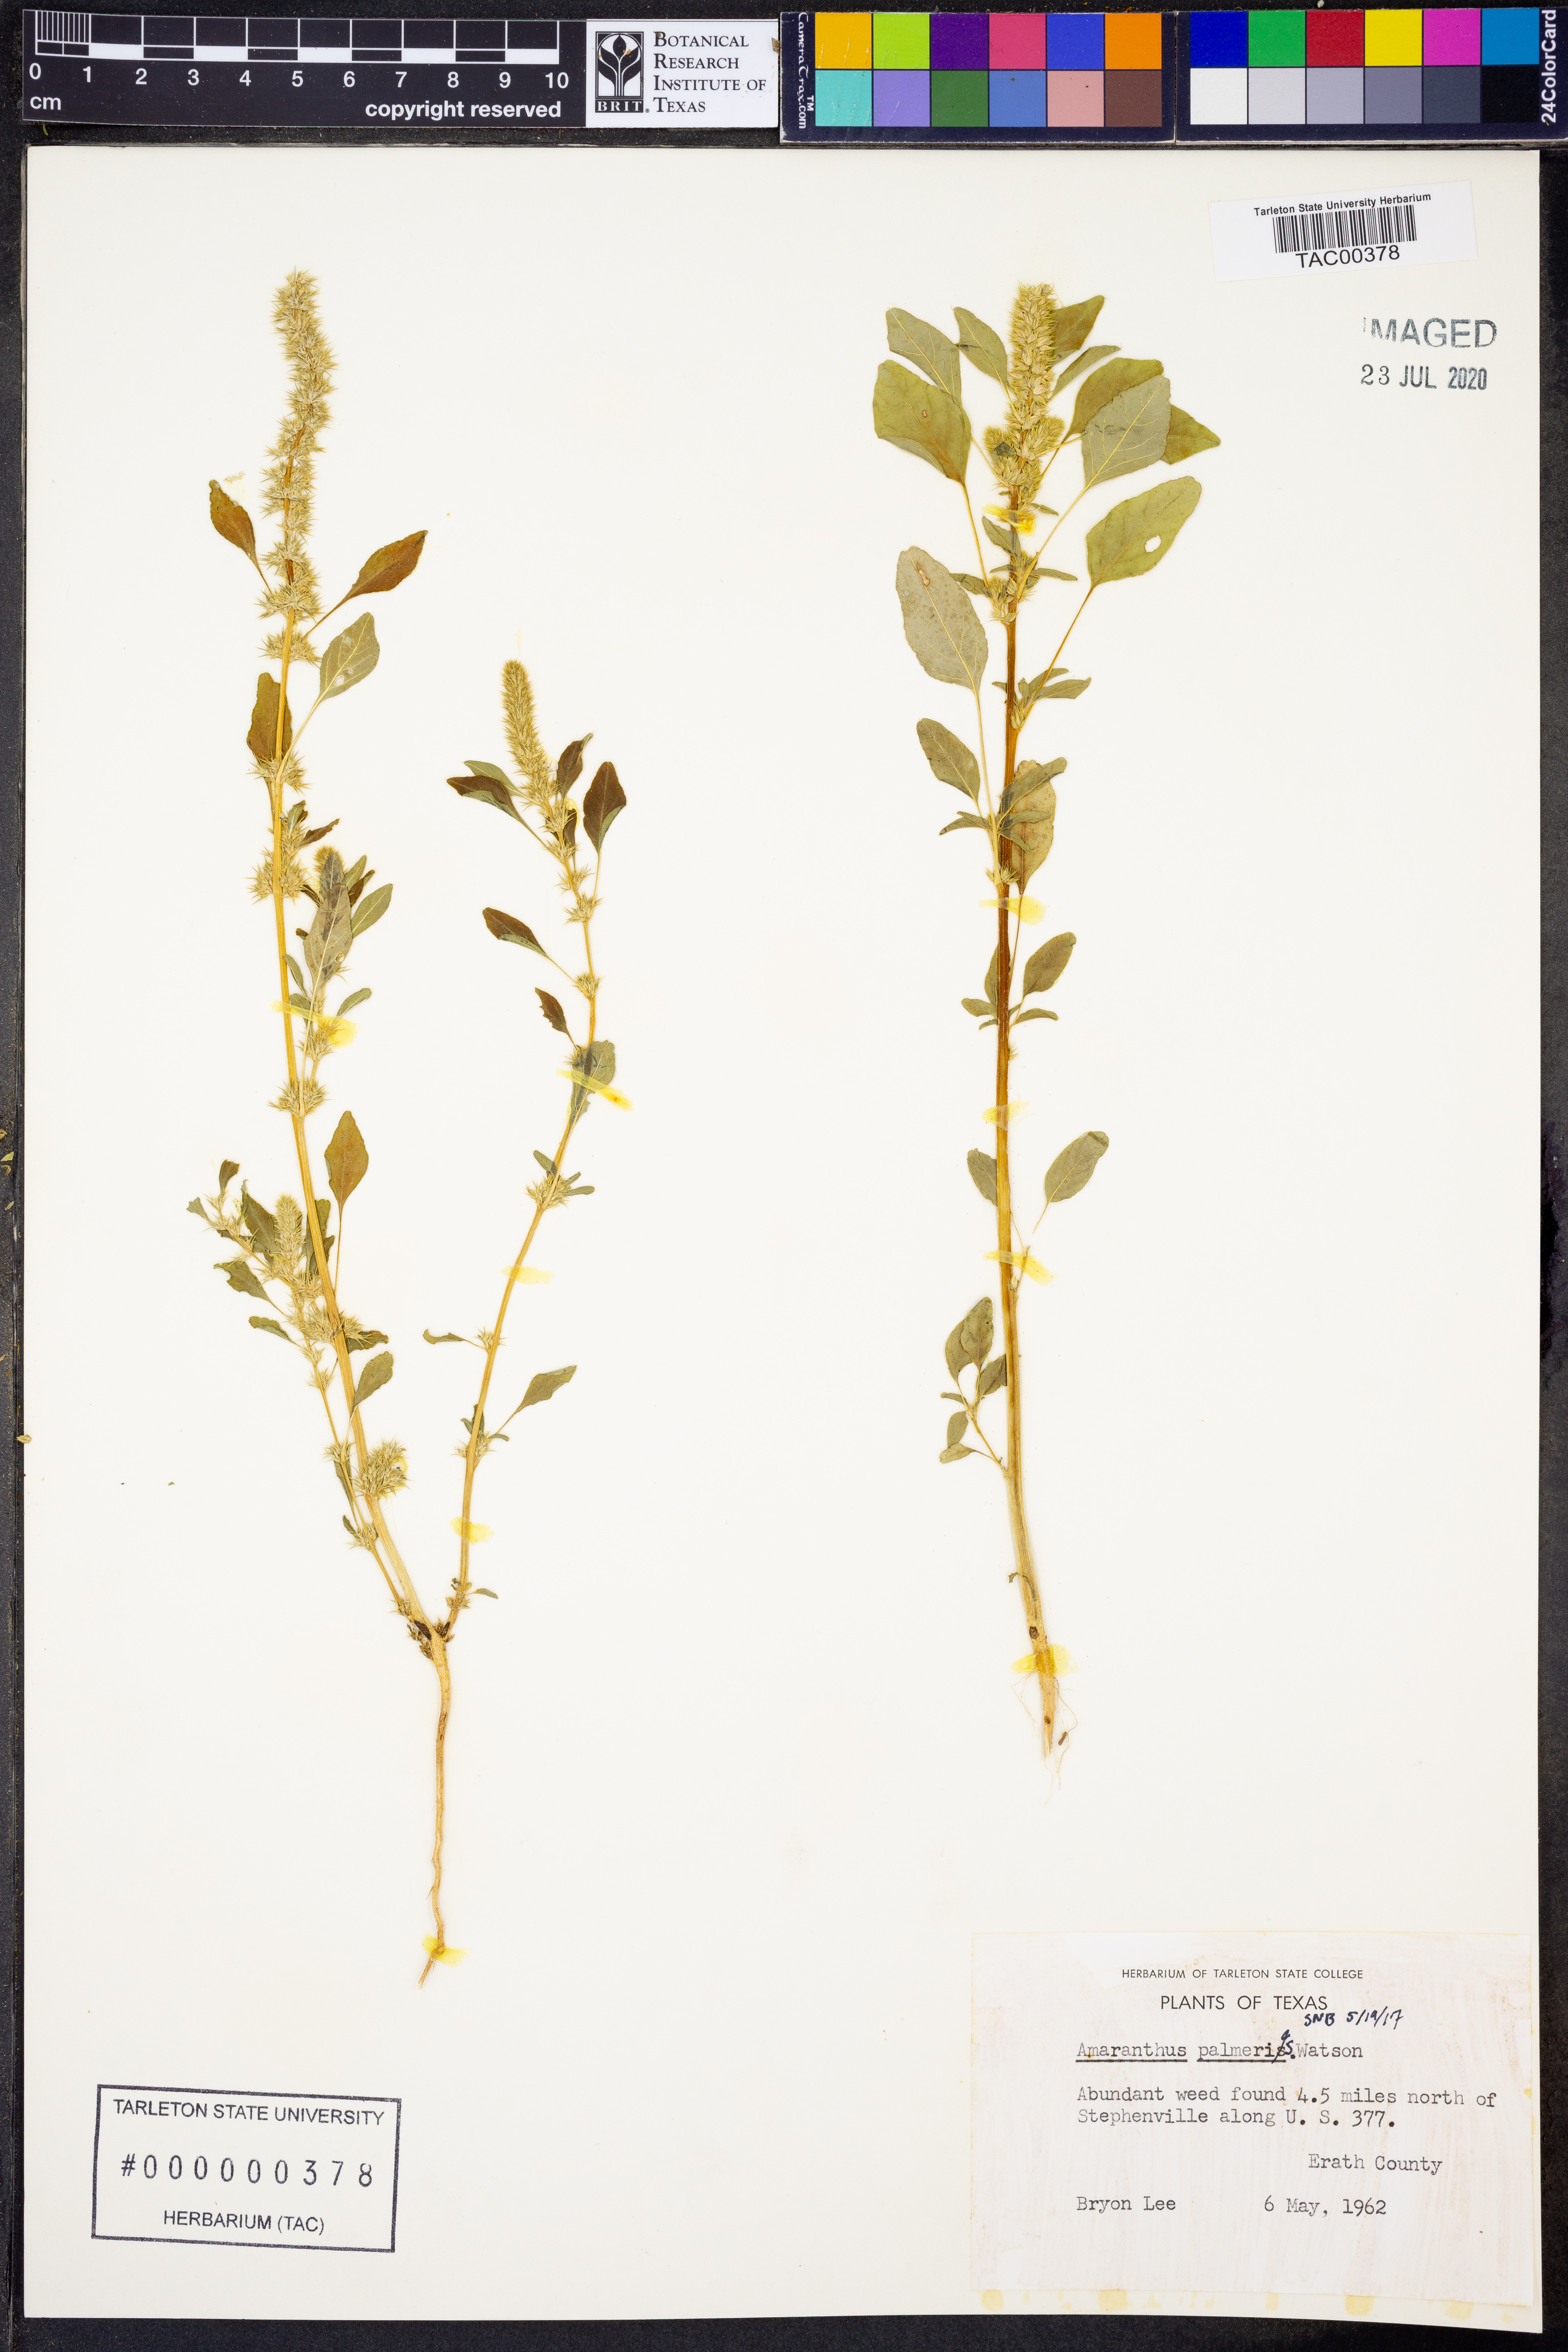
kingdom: Plantae
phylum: Tracheophyta
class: Magnoliopsida
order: Caryophyllales
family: Amaranthaceae
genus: Amaranthus
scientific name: Amaranthus palmeri
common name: Dioecious amaranth
